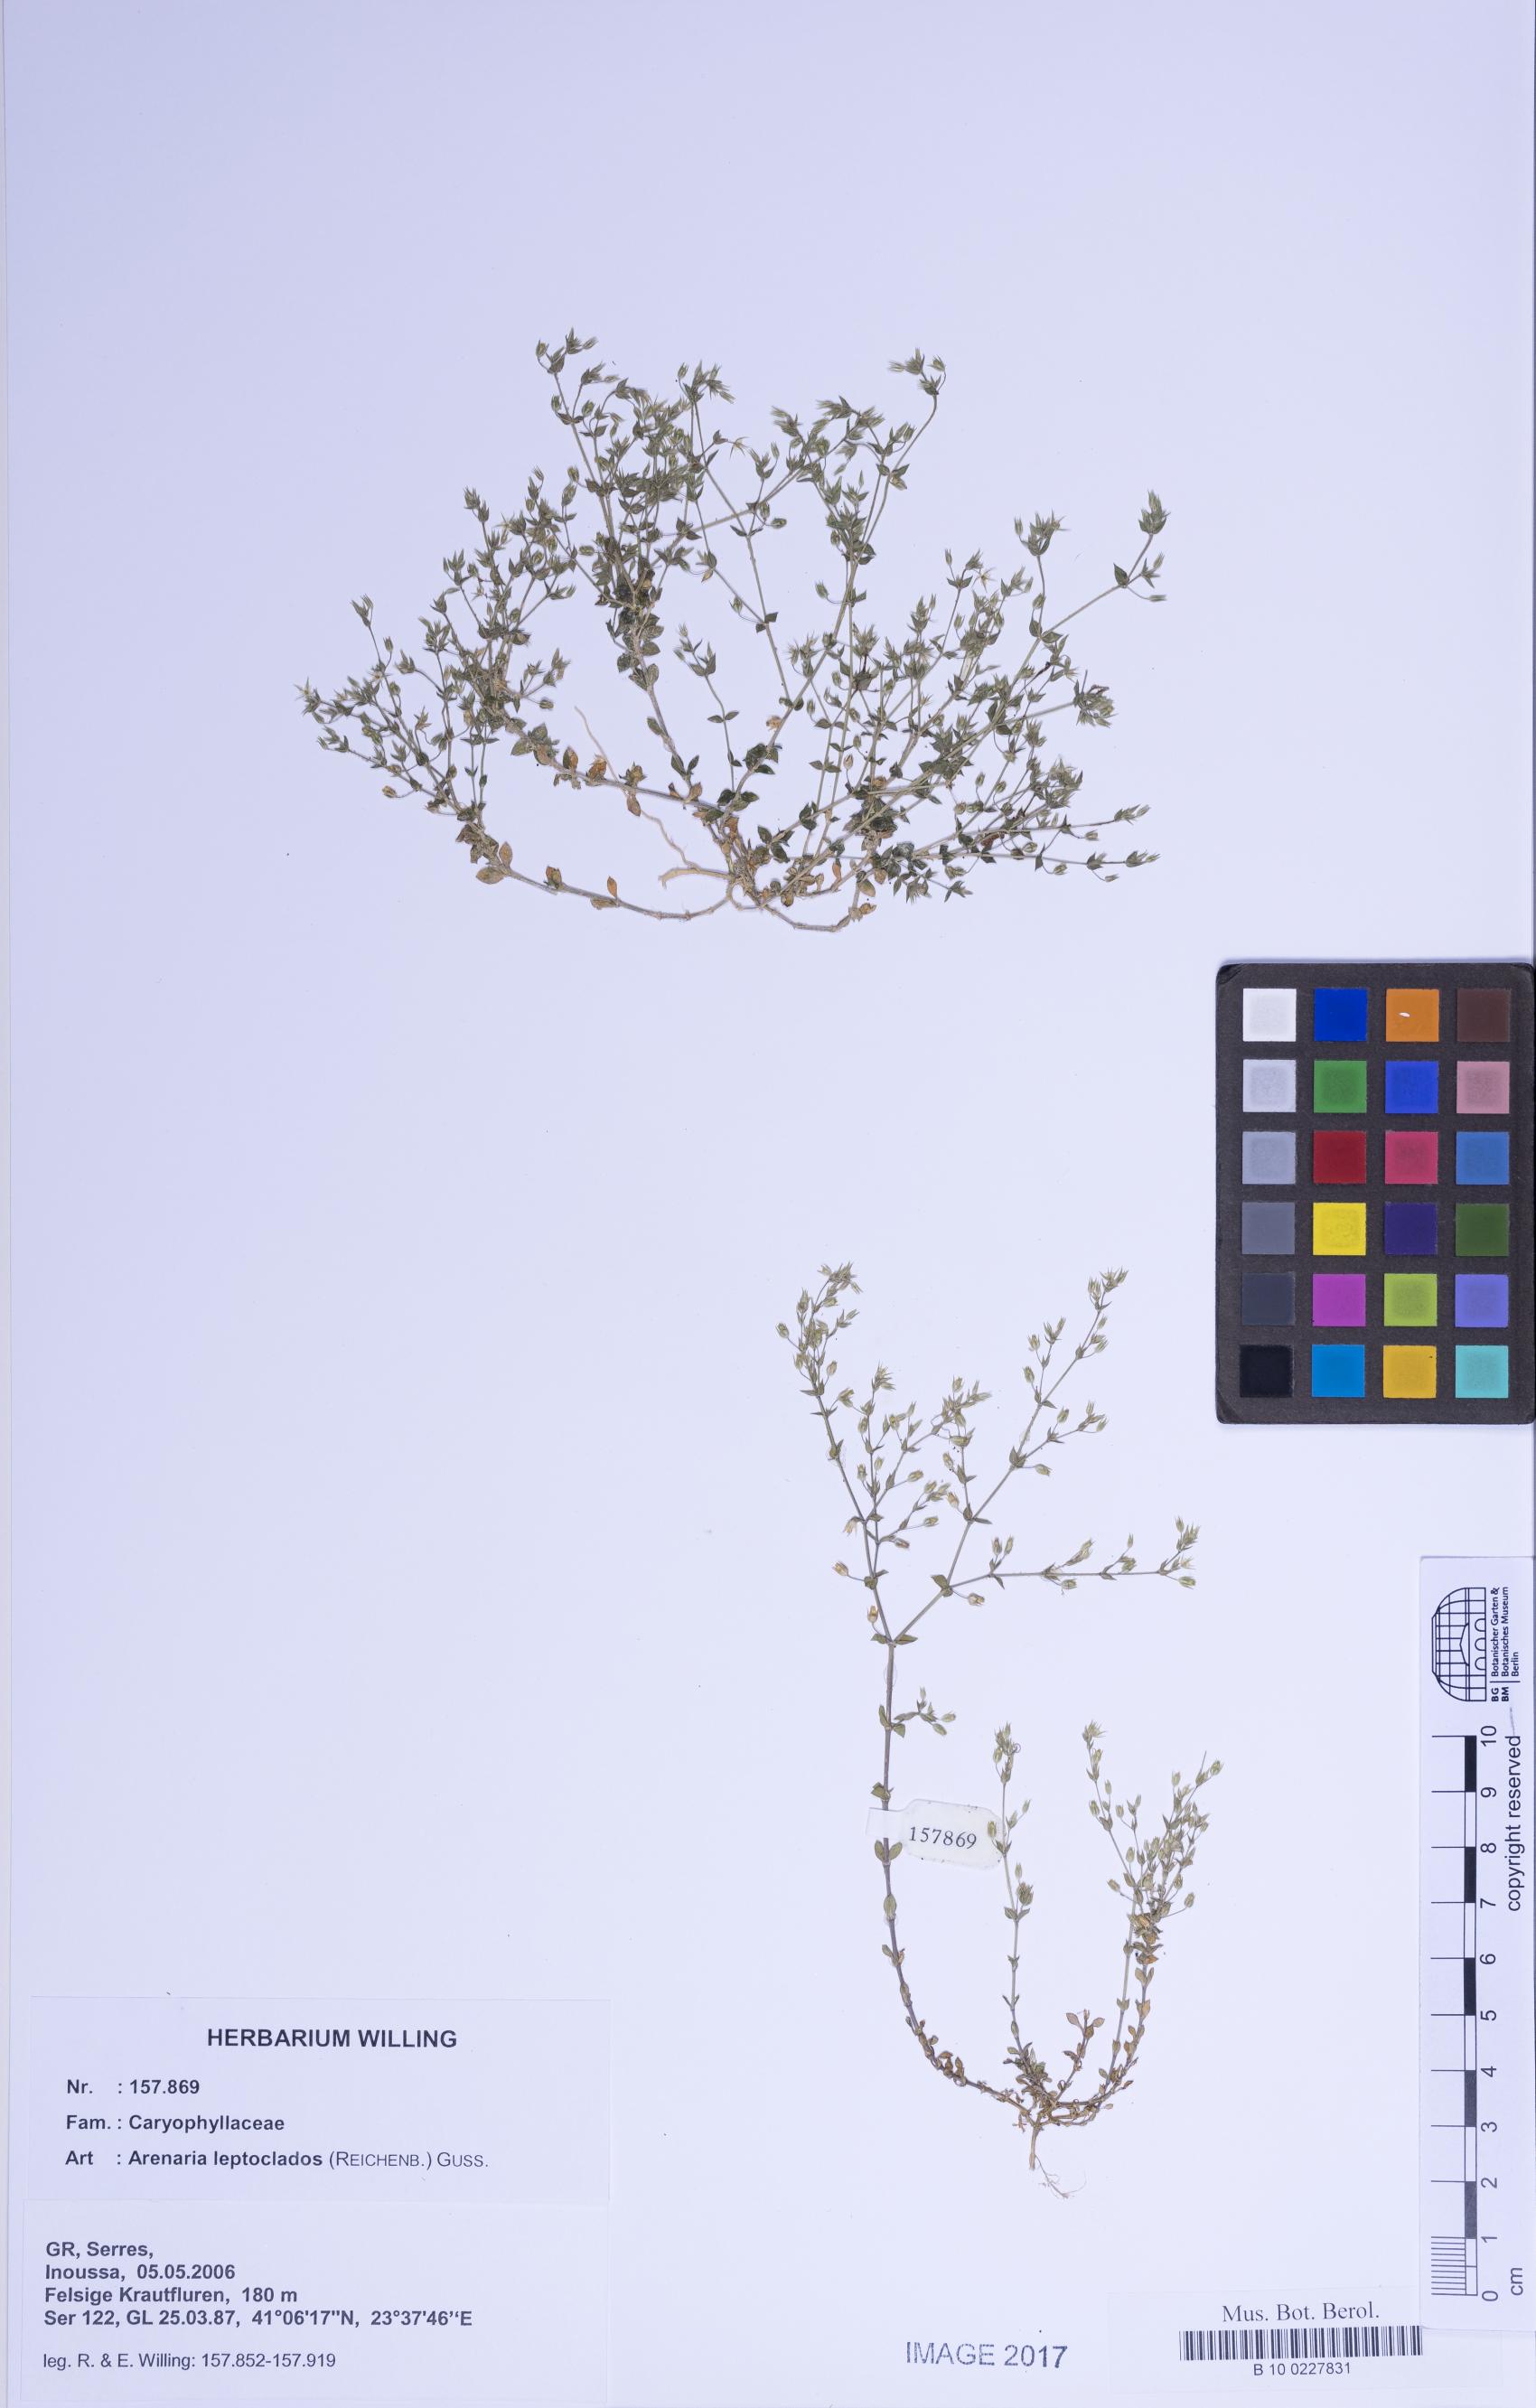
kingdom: Plantae
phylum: Tracheophyta
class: Magnoliopsida
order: Caryophyllales
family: Caryophyllaceae
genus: Arenaria
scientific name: Arenaria leptoclados
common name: Thyme-leaved sandwort
